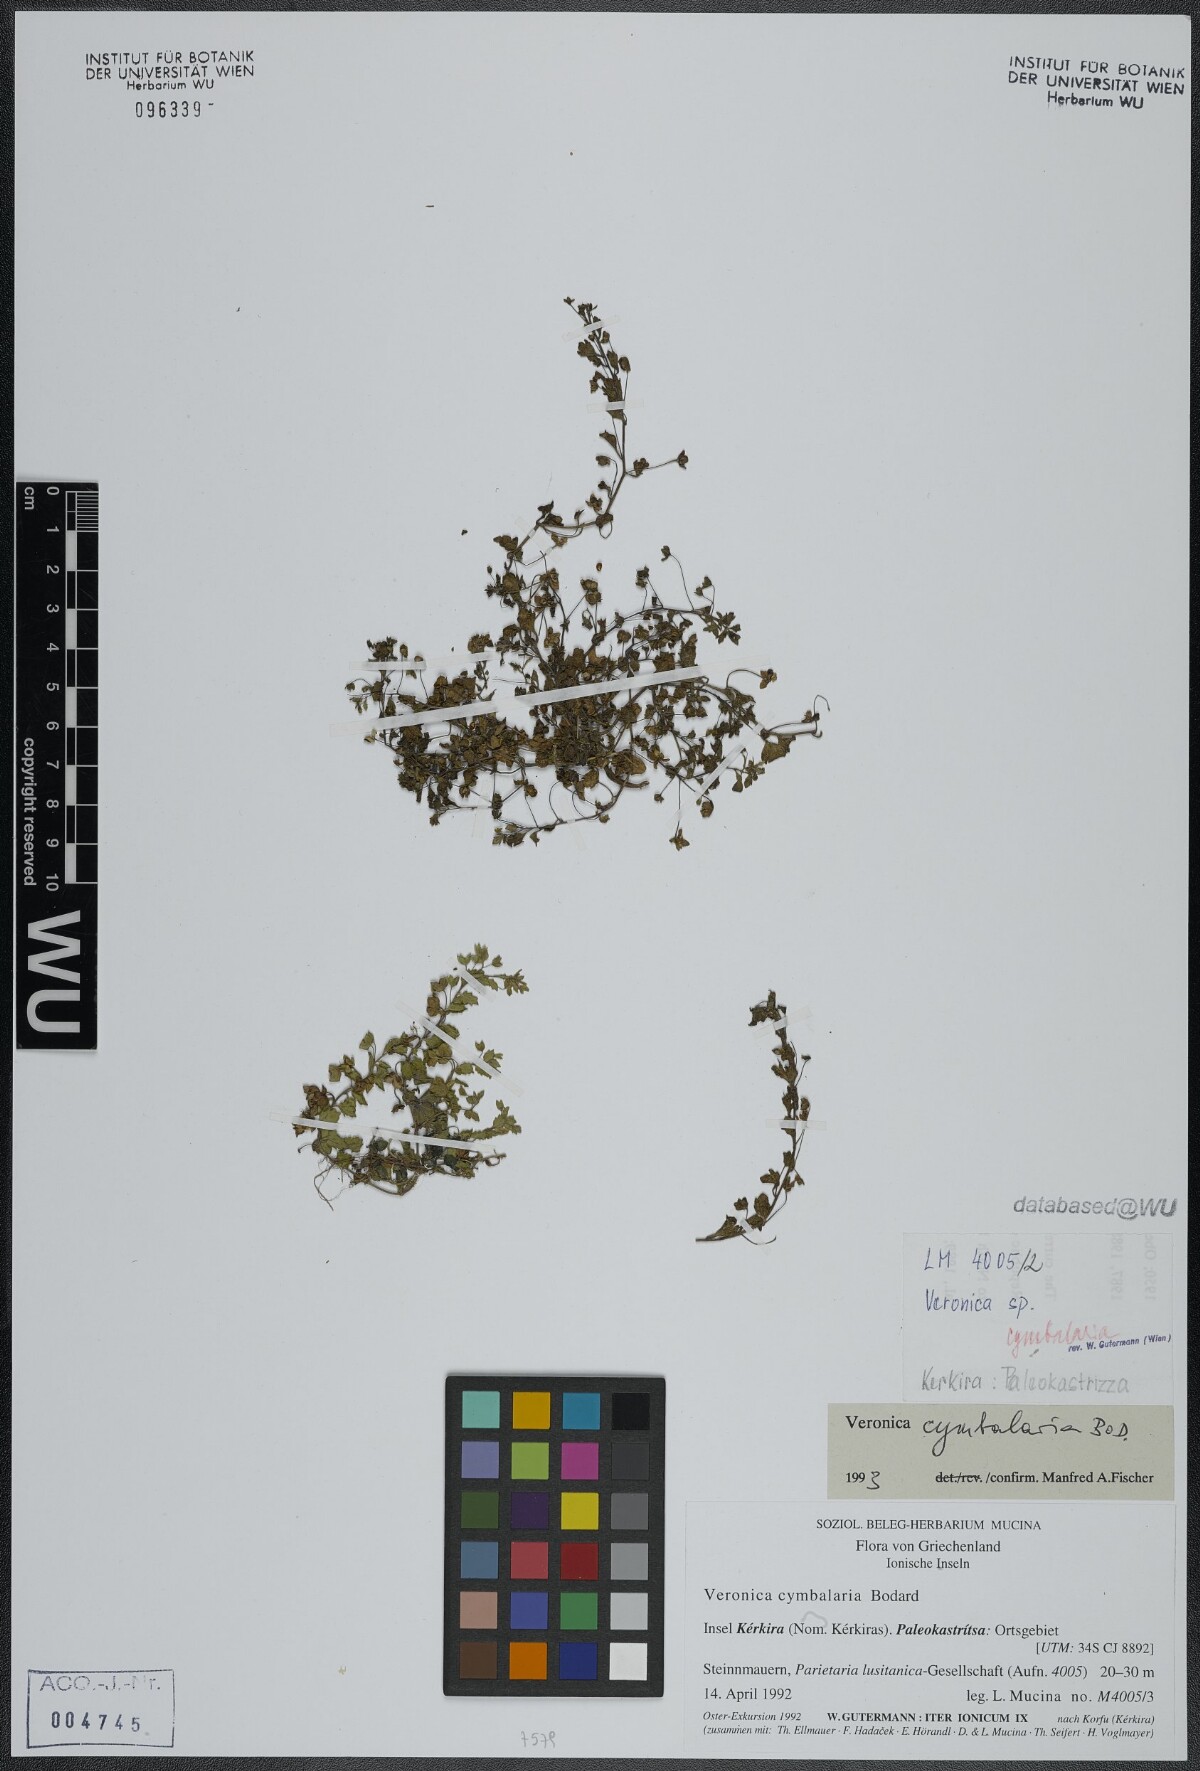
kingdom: Plantae
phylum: Tracheophyta
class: Magnoliopsida
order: Lamiales
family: Plantaginaceae
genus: Veronica
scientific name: Veronica cymbalaria
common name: Pale speedwell
